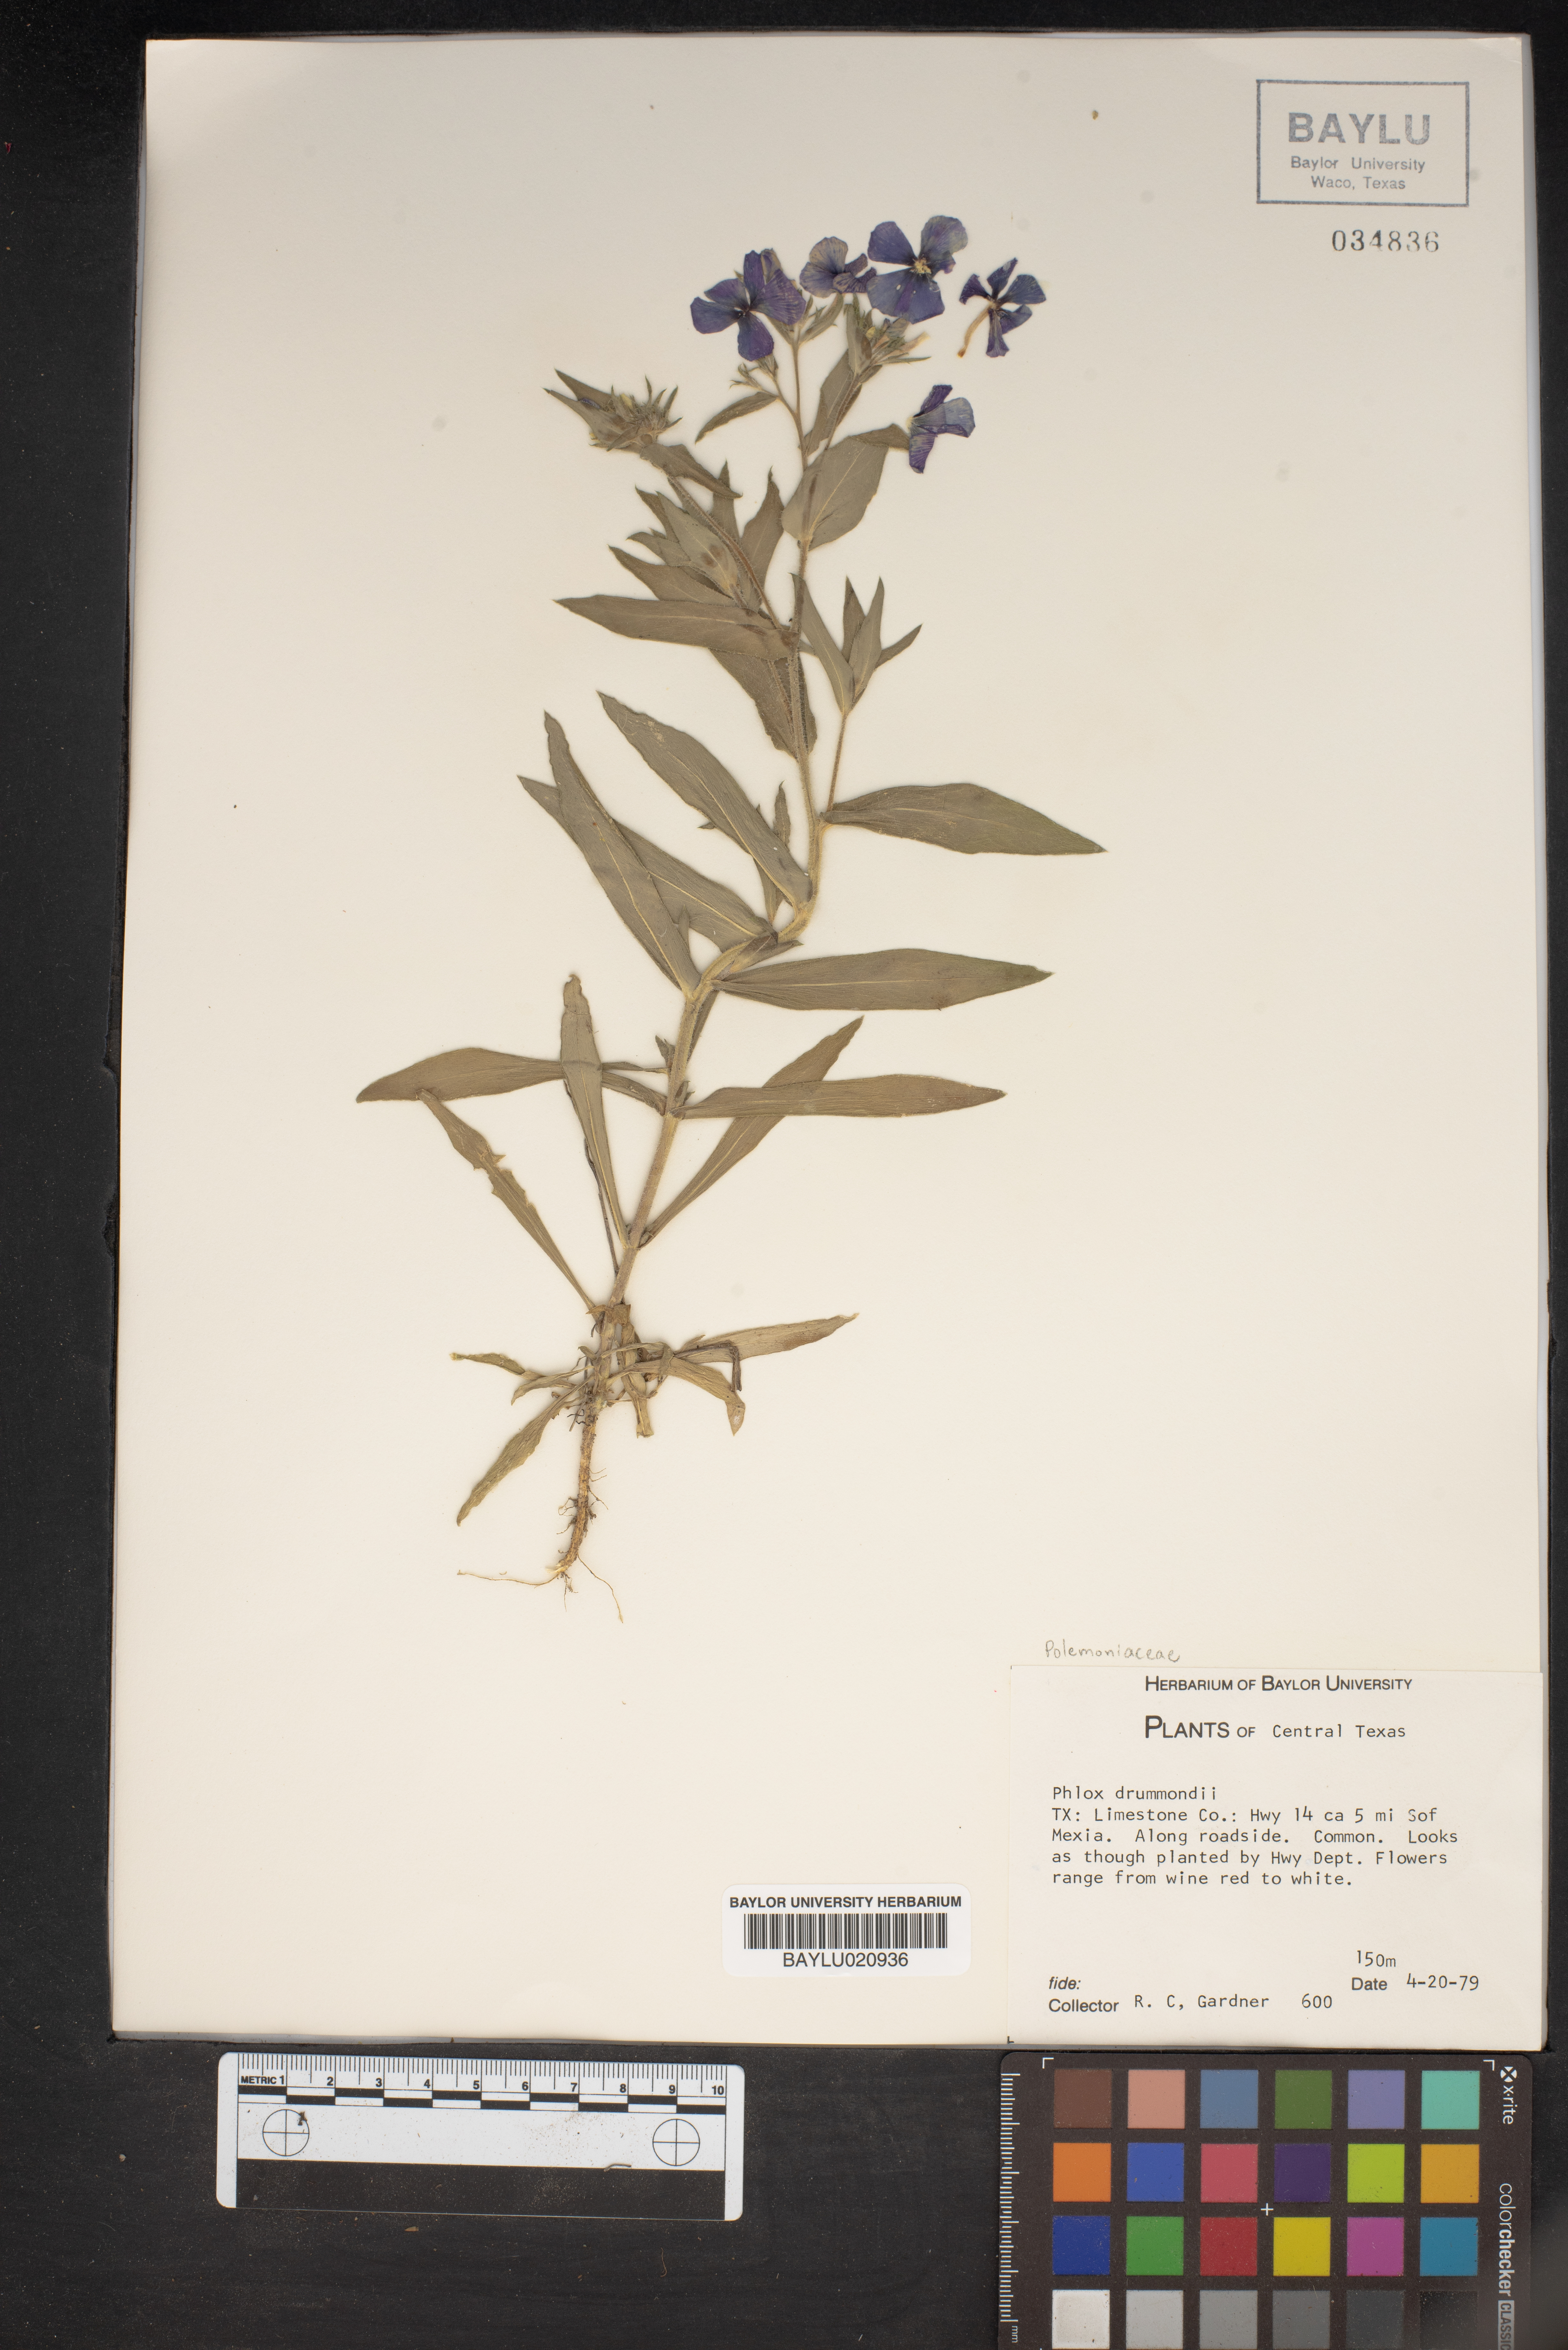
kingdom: Plantae
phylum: Tracheophyta
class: Magnoliopsida
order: Ericales
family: Polemoniaceae
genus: Phlox
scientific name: Phlox drummondii
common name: Drummond's phlox
